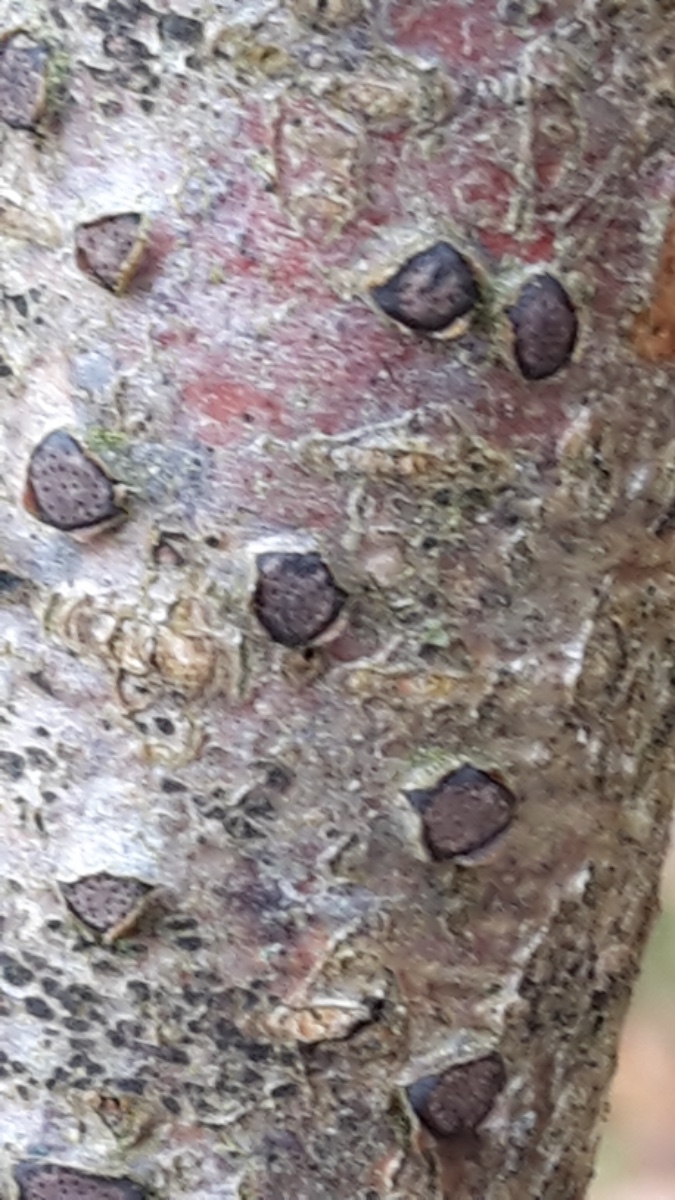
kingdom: Fungi
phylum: Ascomycota
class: Sordariomycetes
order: Xylariales
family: Diatrypaceae
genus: Diatrype
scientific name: Diatrype disciformis
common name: kant-kulskorpe
